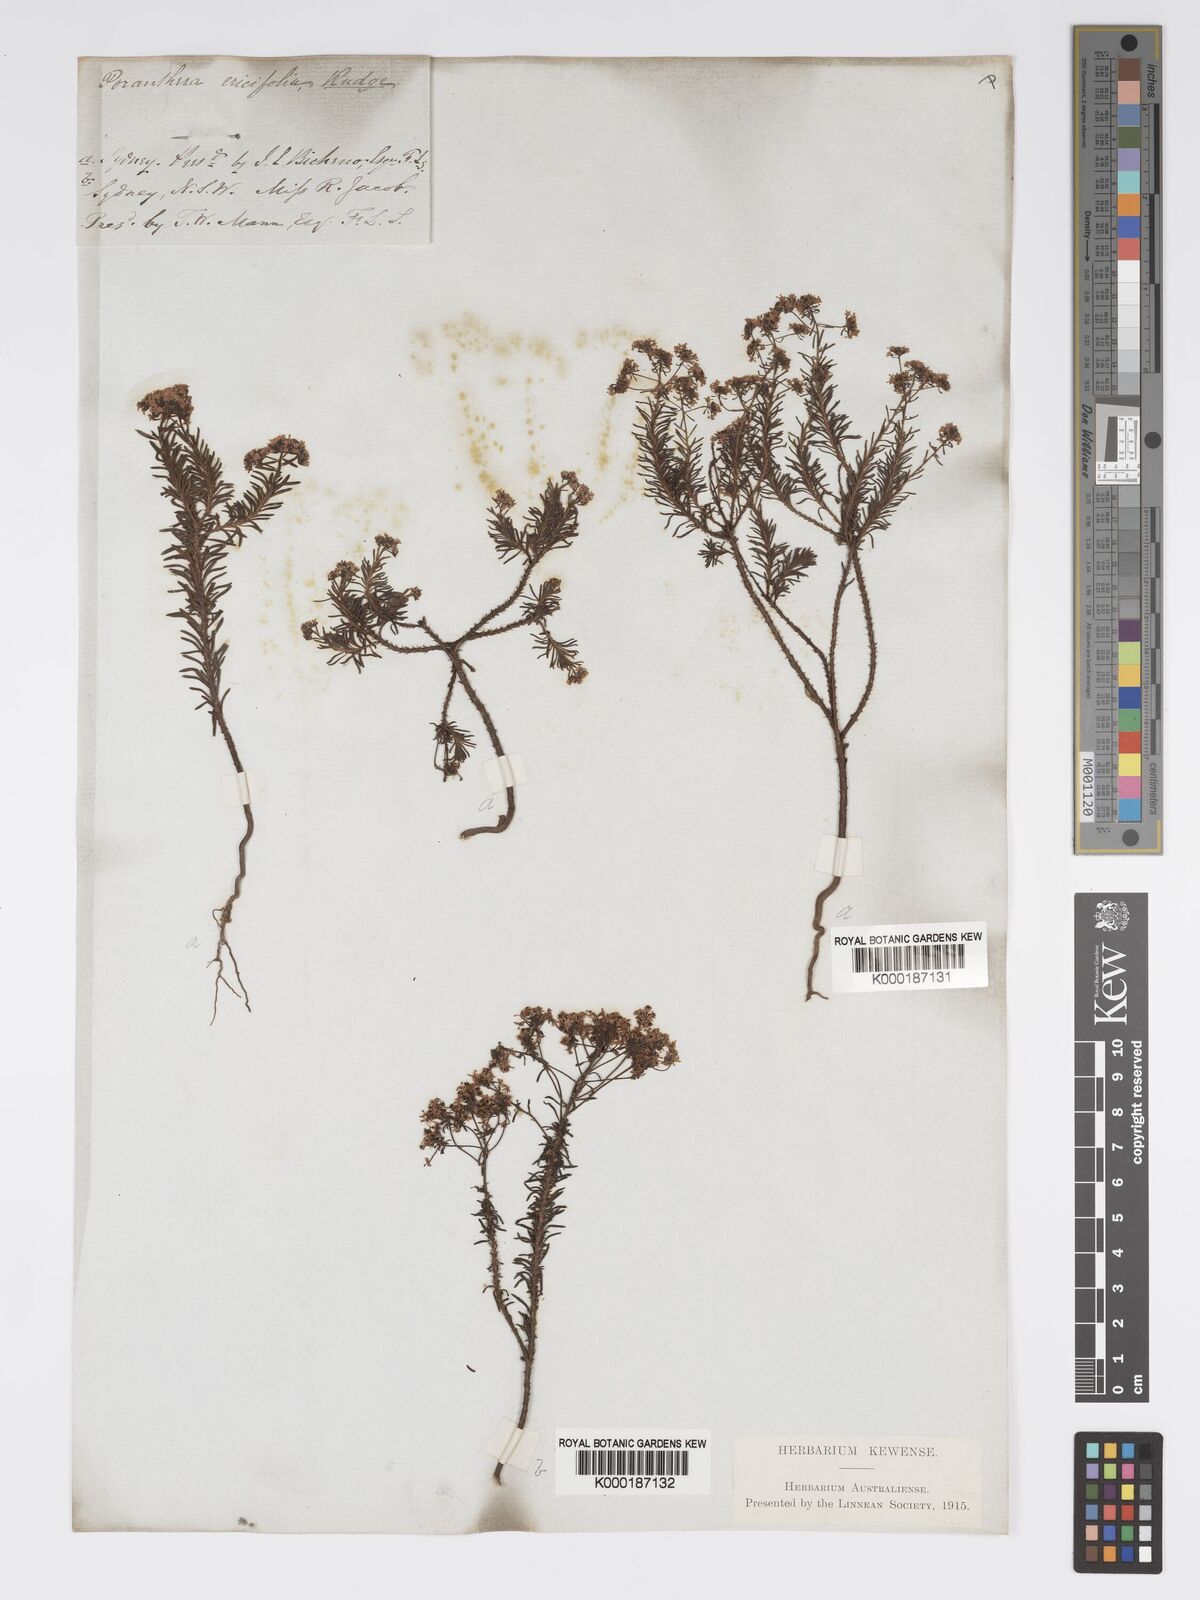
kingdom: Plantae
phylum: Tracheophyta
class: Magnoliopsida
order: Malpighiales
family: Phyllanthaceae
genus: Poranthera
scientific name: Poranthera ericifolia
